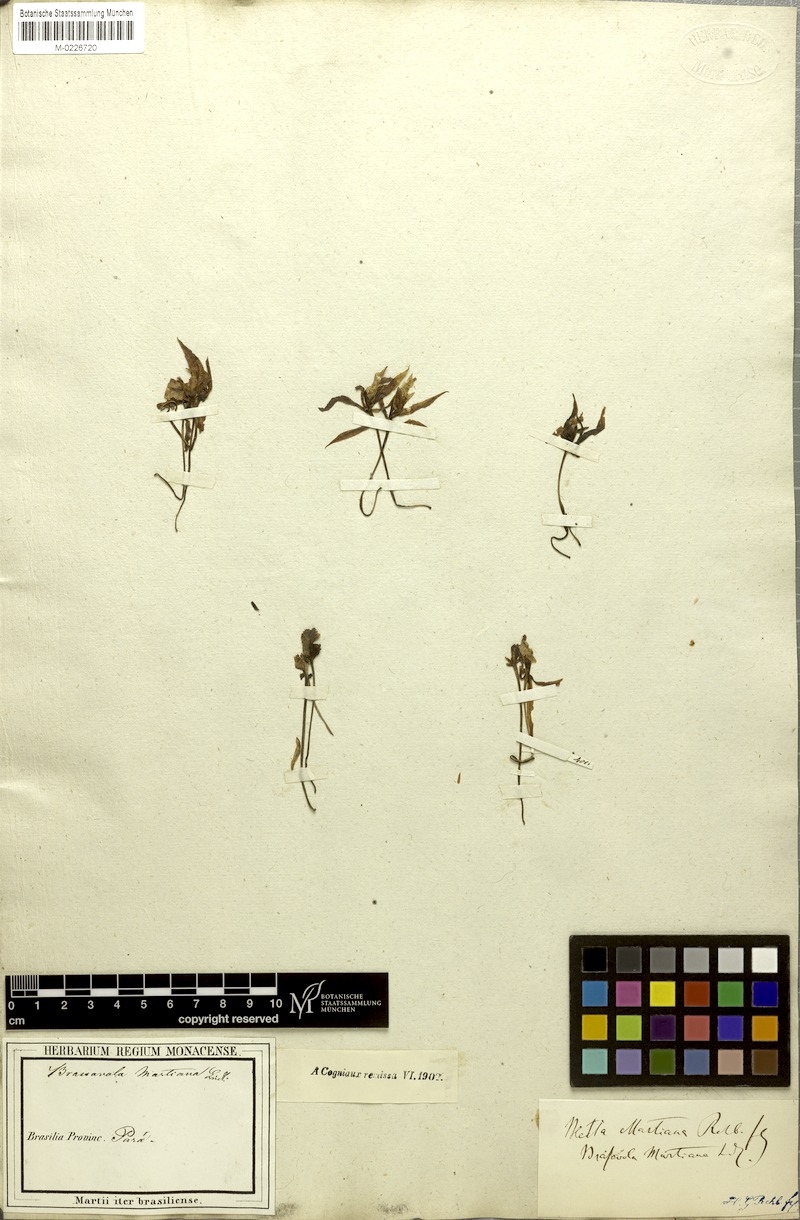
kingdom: Plantae
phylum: Tracheophyta
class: Liliopsida
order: Asparagales
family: Orchidaceae
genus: Brassavola
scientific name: Brassavola martiana
